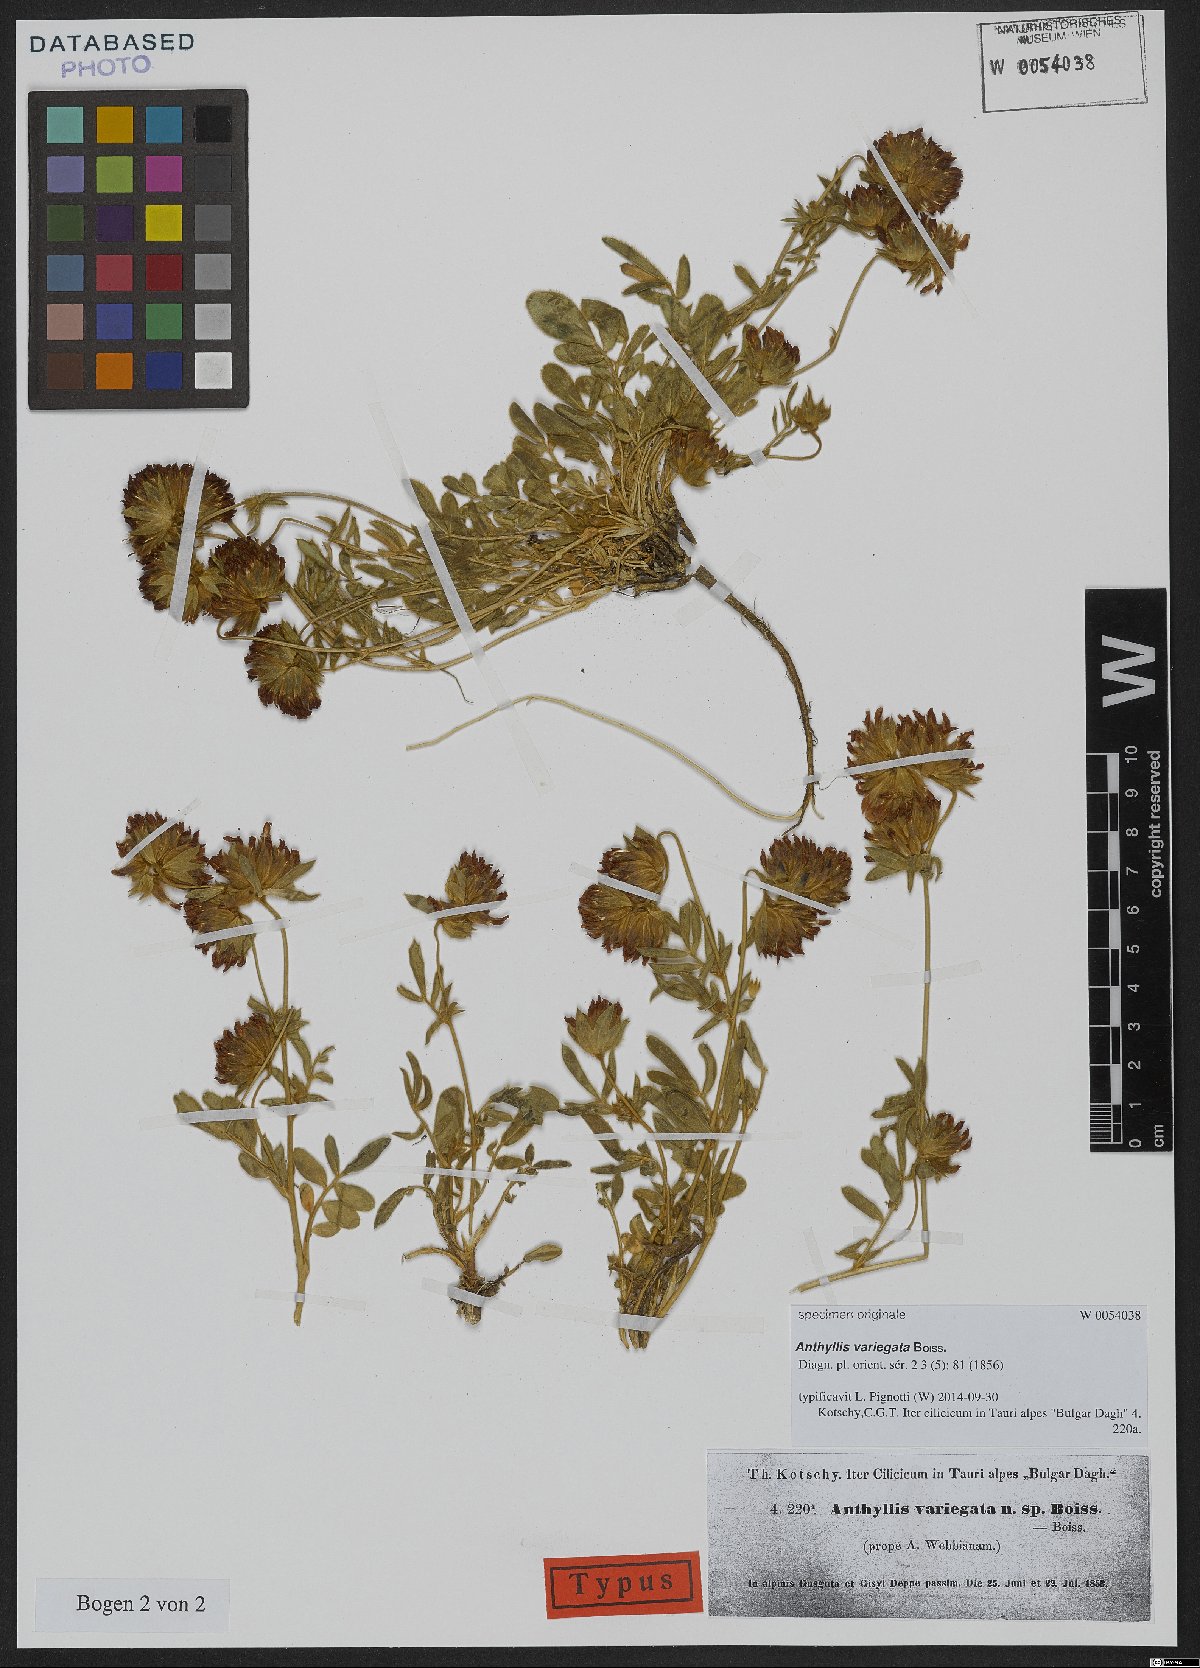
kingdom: Plantae
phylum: Tracheophyta
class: Magnoliopsida
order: Fabales
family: Fabaceae
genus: Anthyllis
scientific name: Anthyllis variegata
